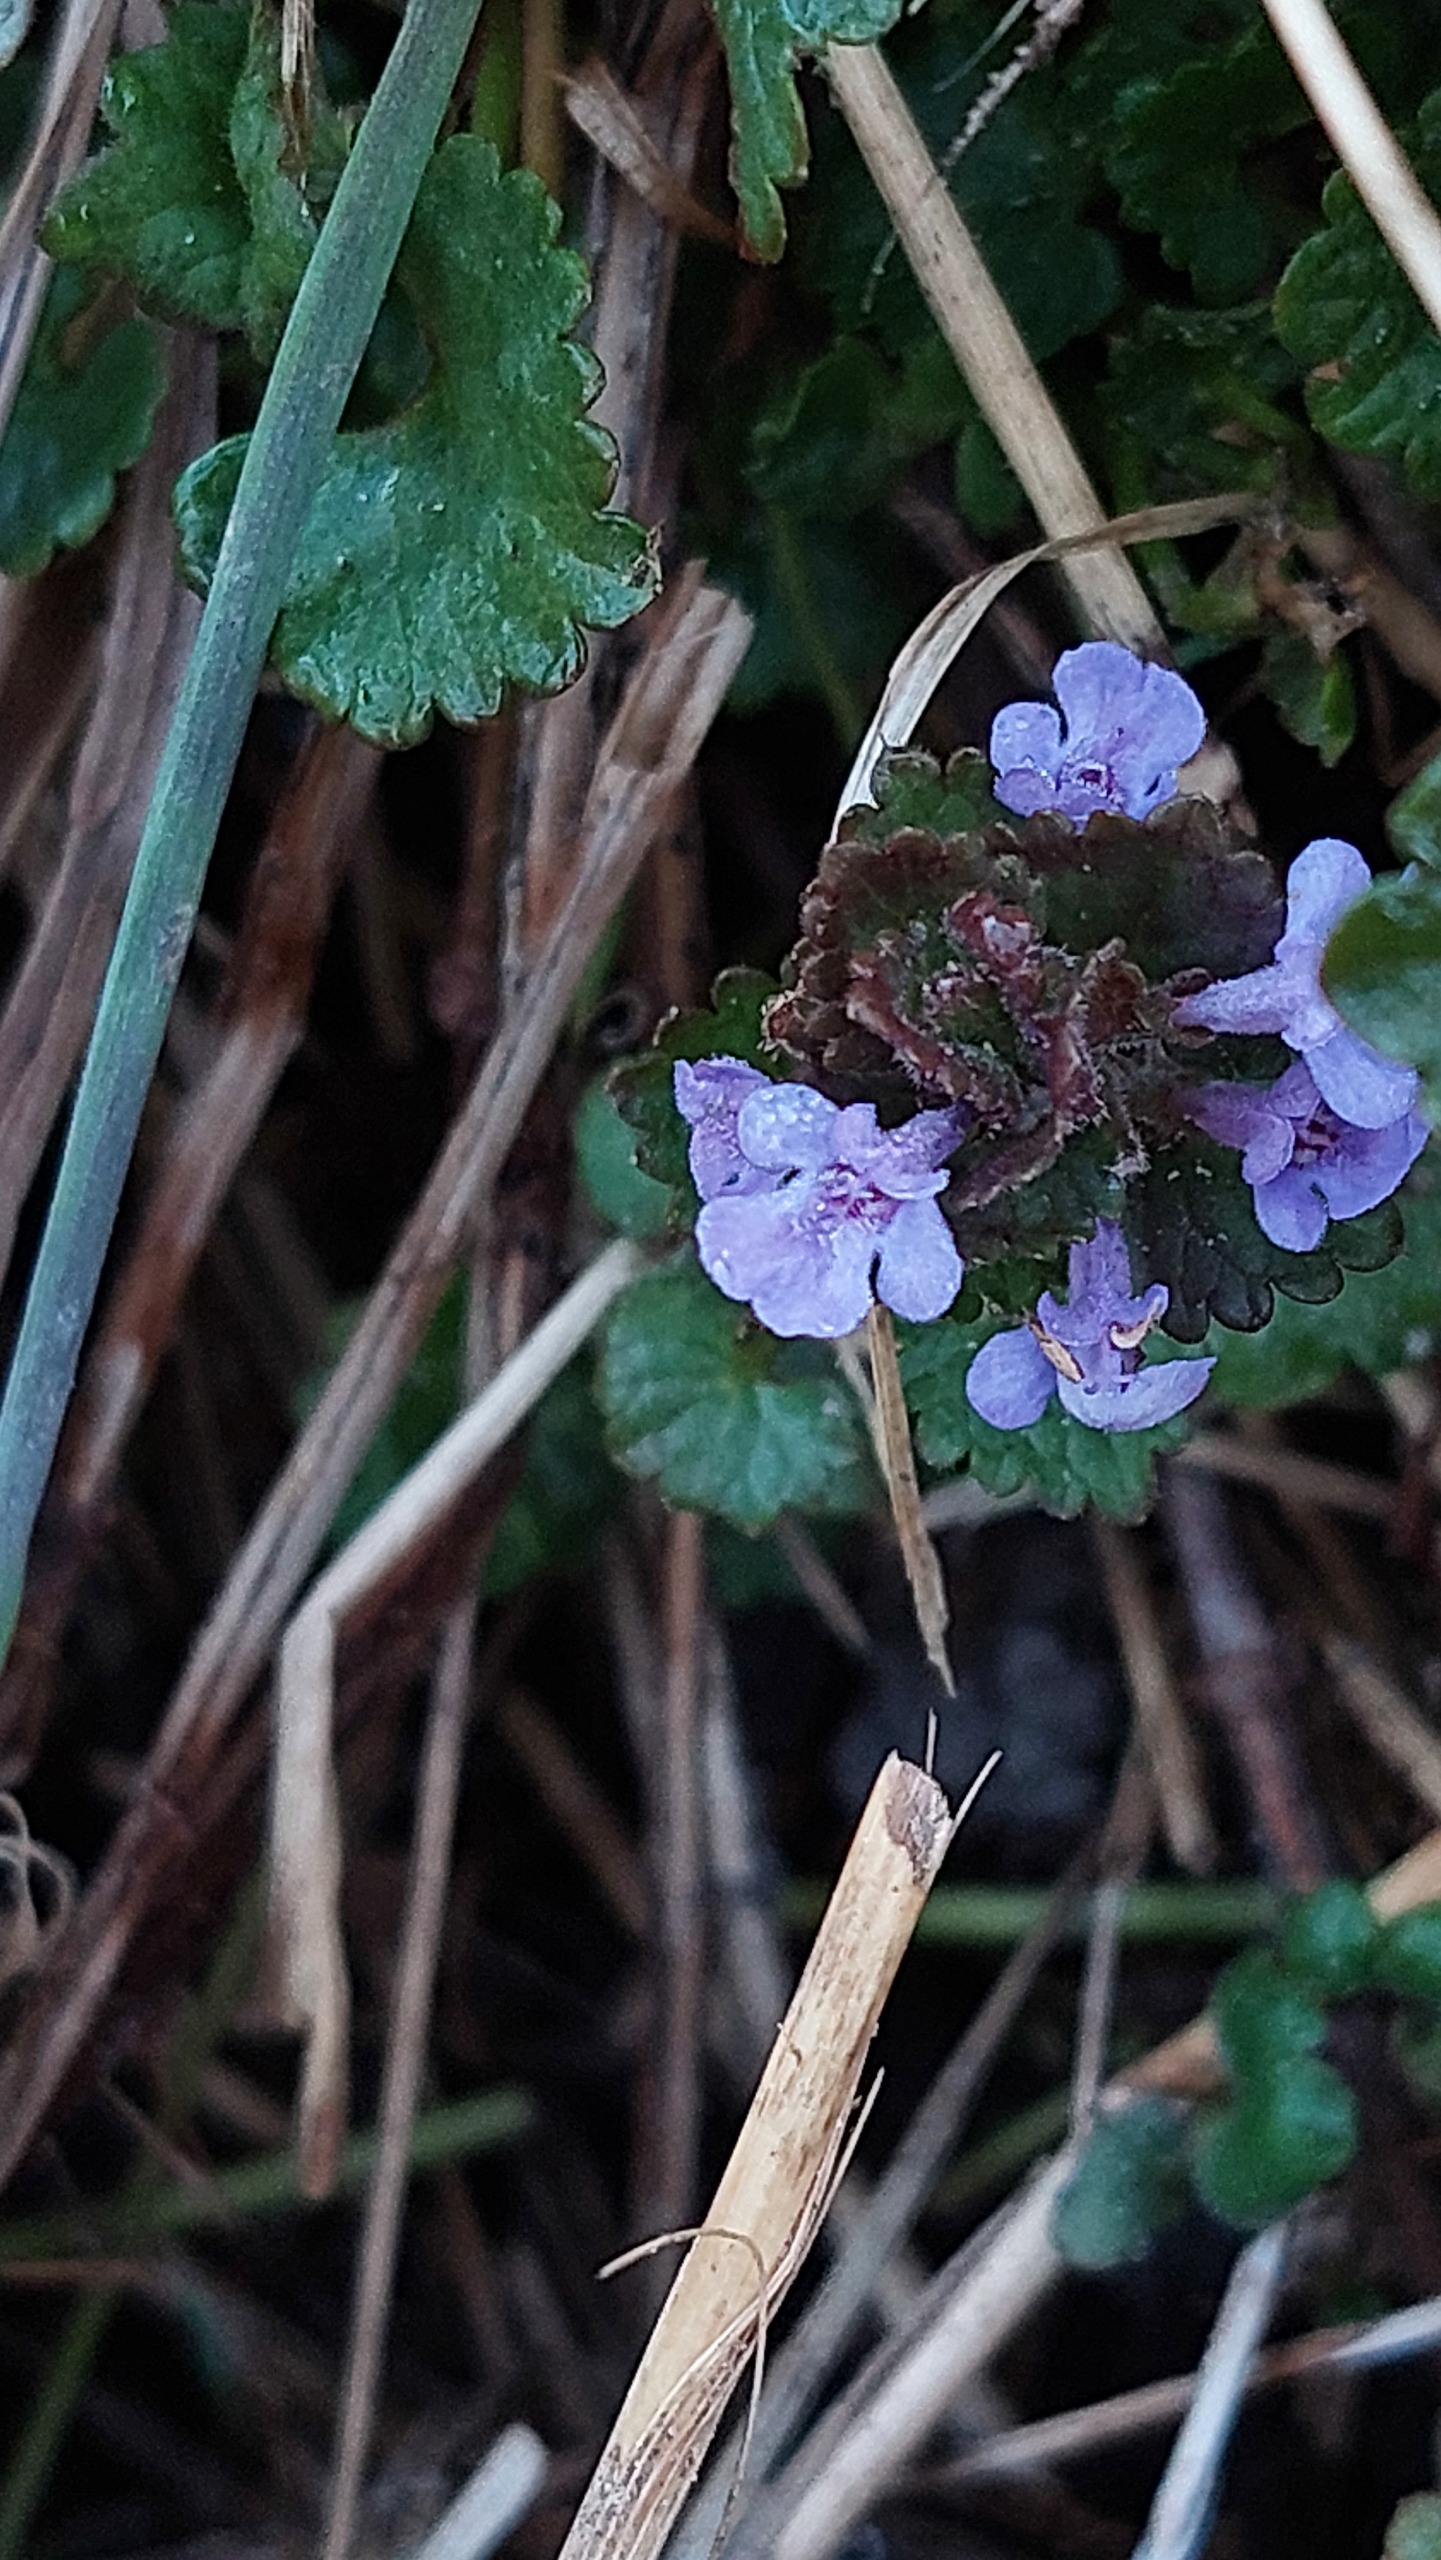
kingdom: Plantae
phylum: Tracheophyta
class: Magnoliopsida
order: Lamiales
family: Lamiaceae
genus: Glechoma
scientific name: Glechoma hederacea
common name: Korsknap
